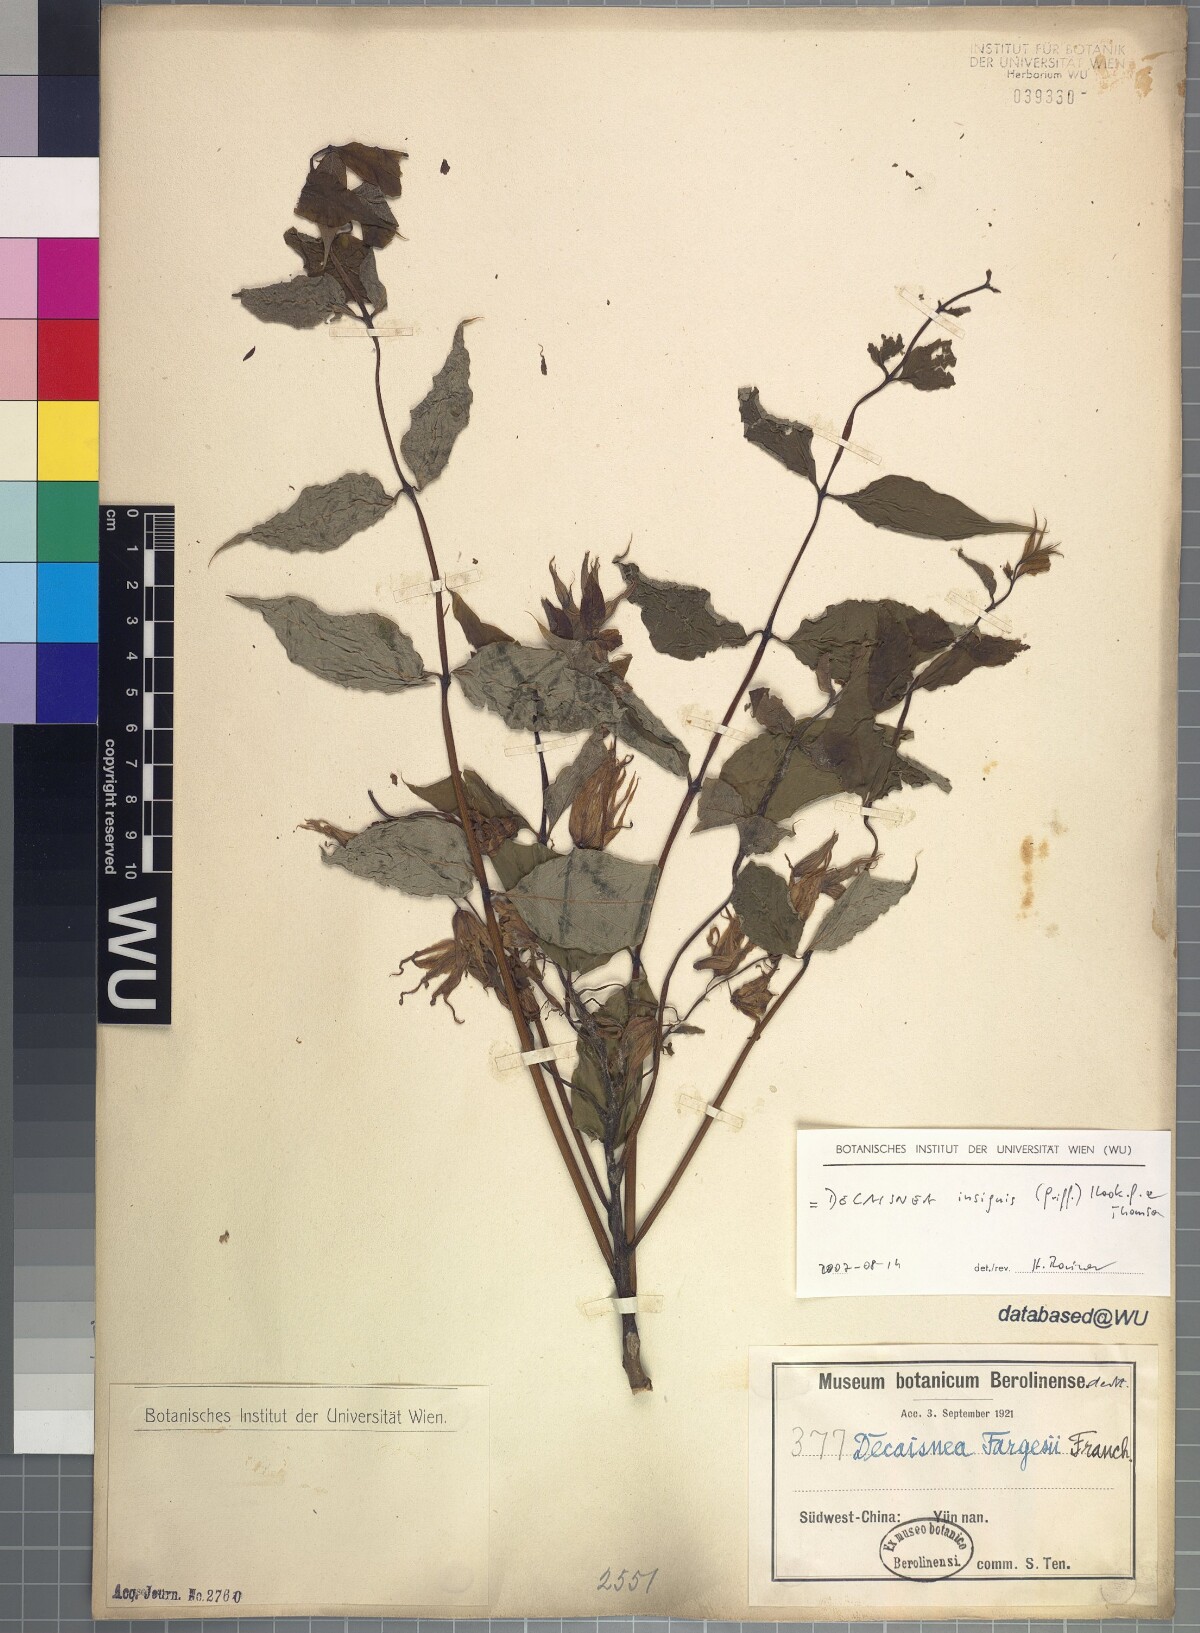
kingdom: Plantae
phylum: Tracheophyta
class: Magnoliopsida
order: Ranunculales
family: Lardizabalaceae
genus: Decaisnea
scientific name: Decaisnea insignis
